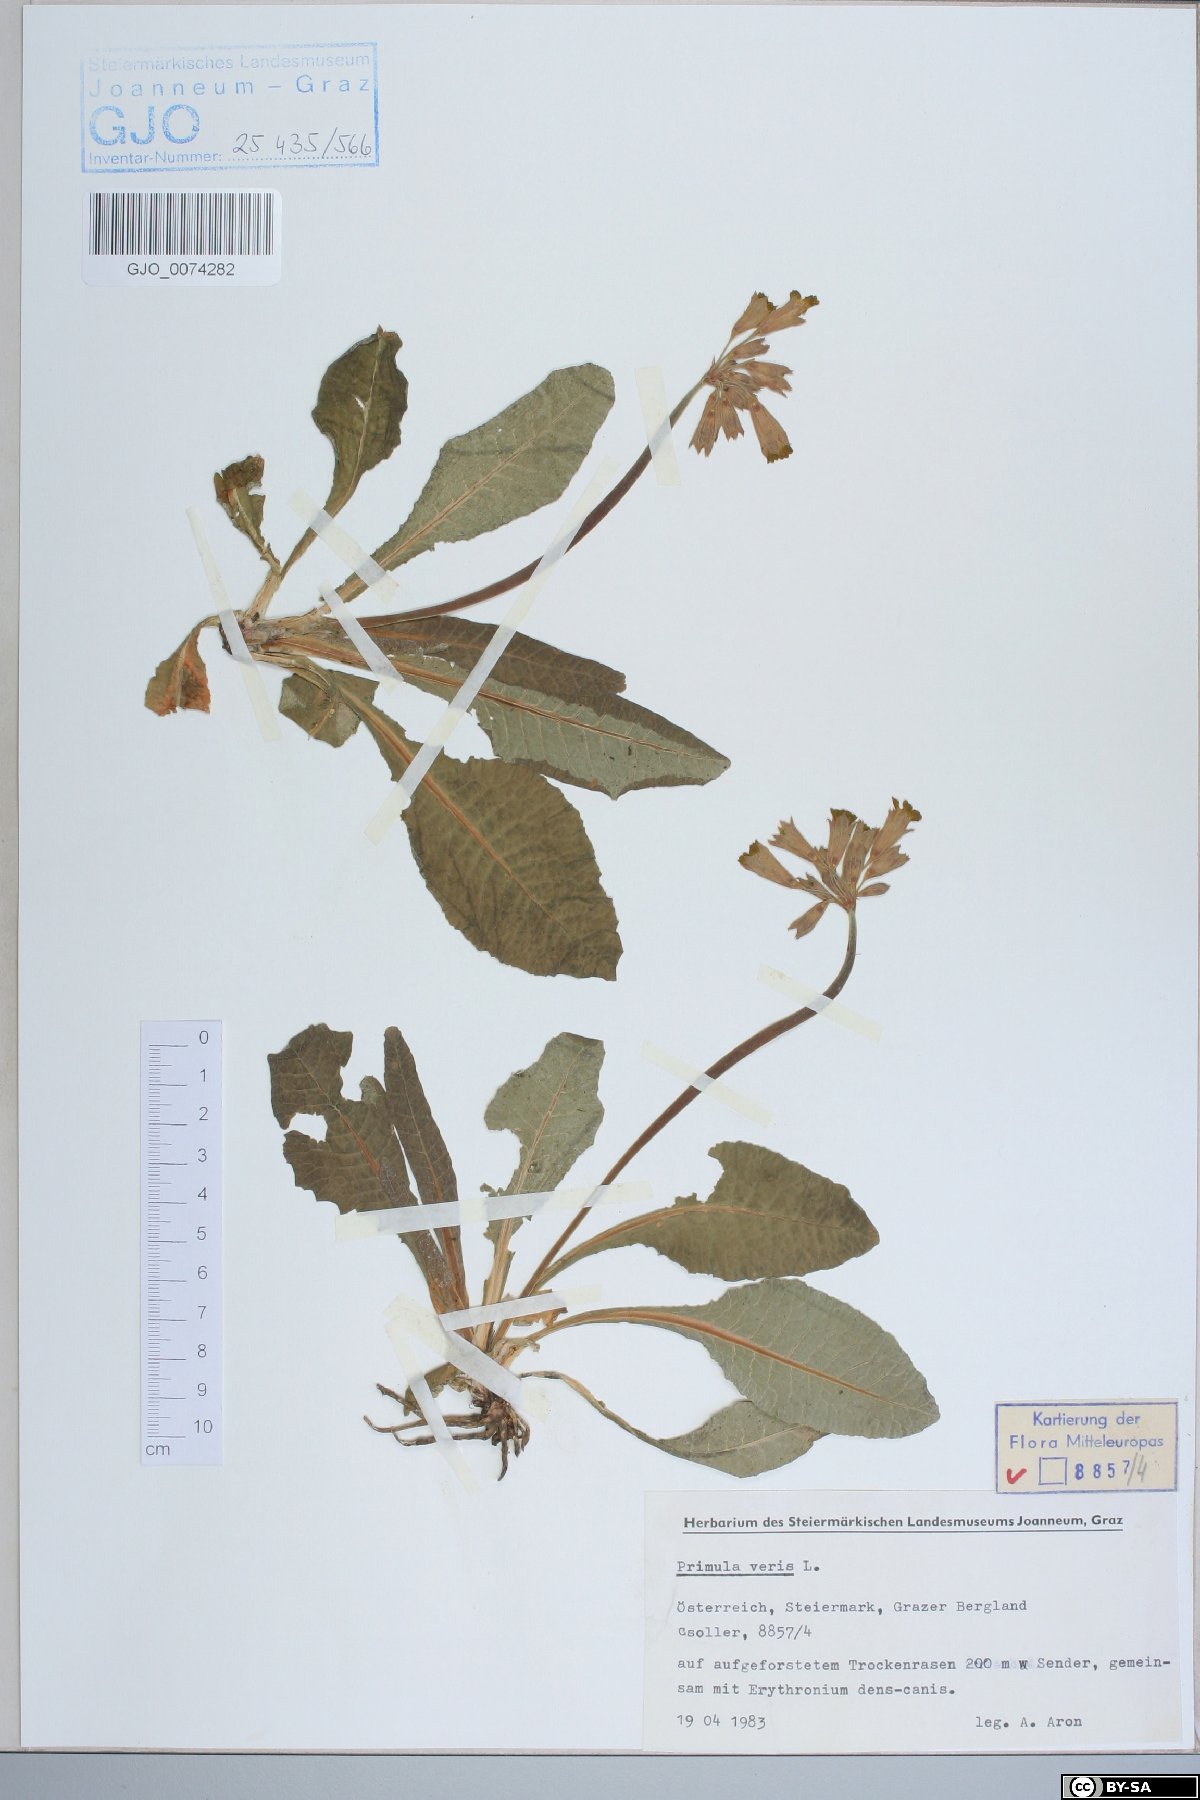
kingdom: Plantae
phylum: Tracheophyta
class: Magnoliopsida
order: Ericales
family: Primulaceae
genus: Primula
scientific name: Primula veris
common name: Cowslip
